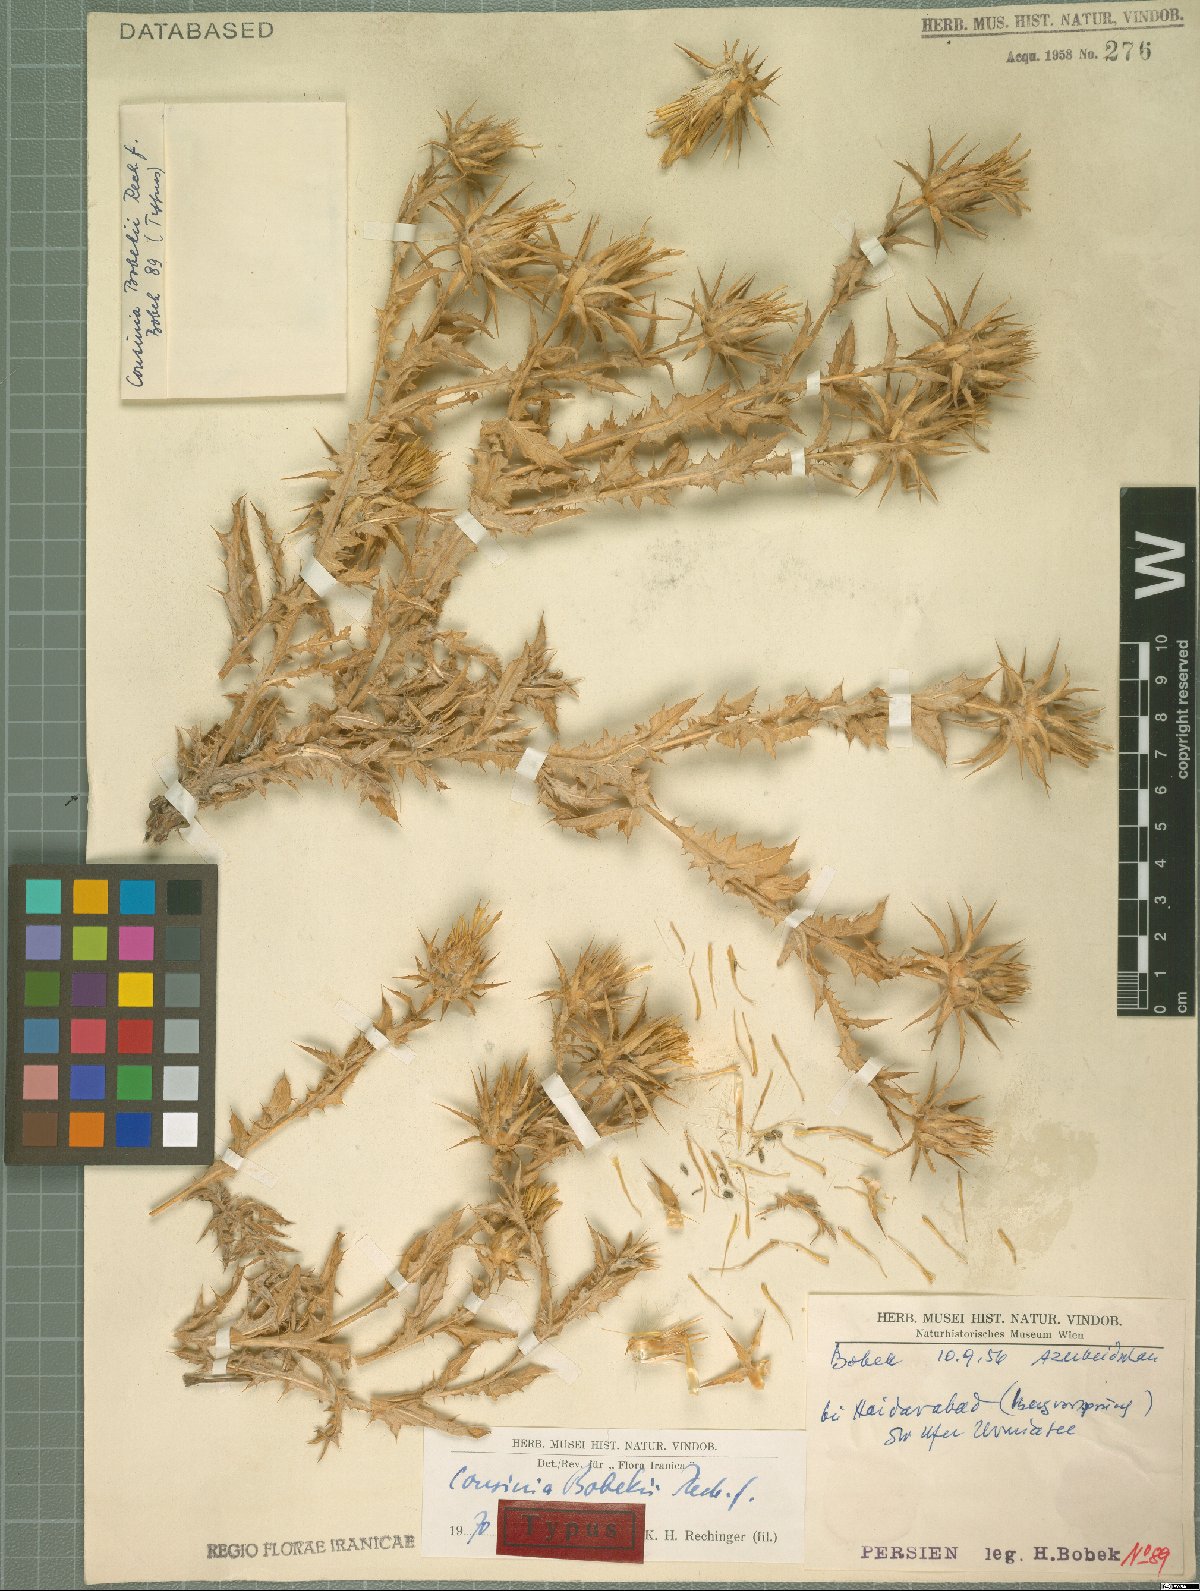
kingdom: Plantae
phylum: Tracheophyta
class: Magnoliopsida
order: Asterales
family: Asteraceae
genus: Cousinia
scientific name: Cousinia bobekii
